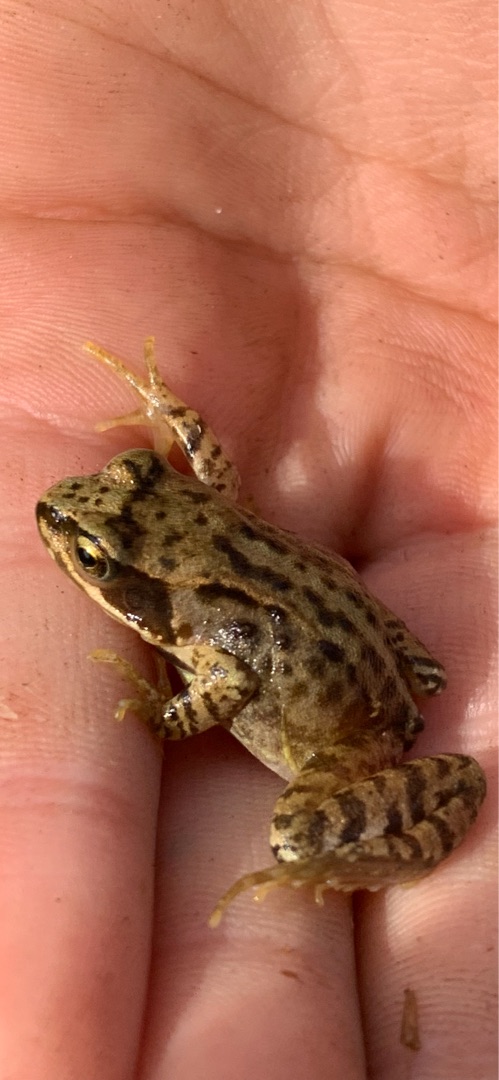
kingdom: Animalia
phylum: Chordata
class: Amphibia
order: Anura
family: Ranidae
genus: Rana
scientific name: Rana temporaria
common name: Butsnudet frø
